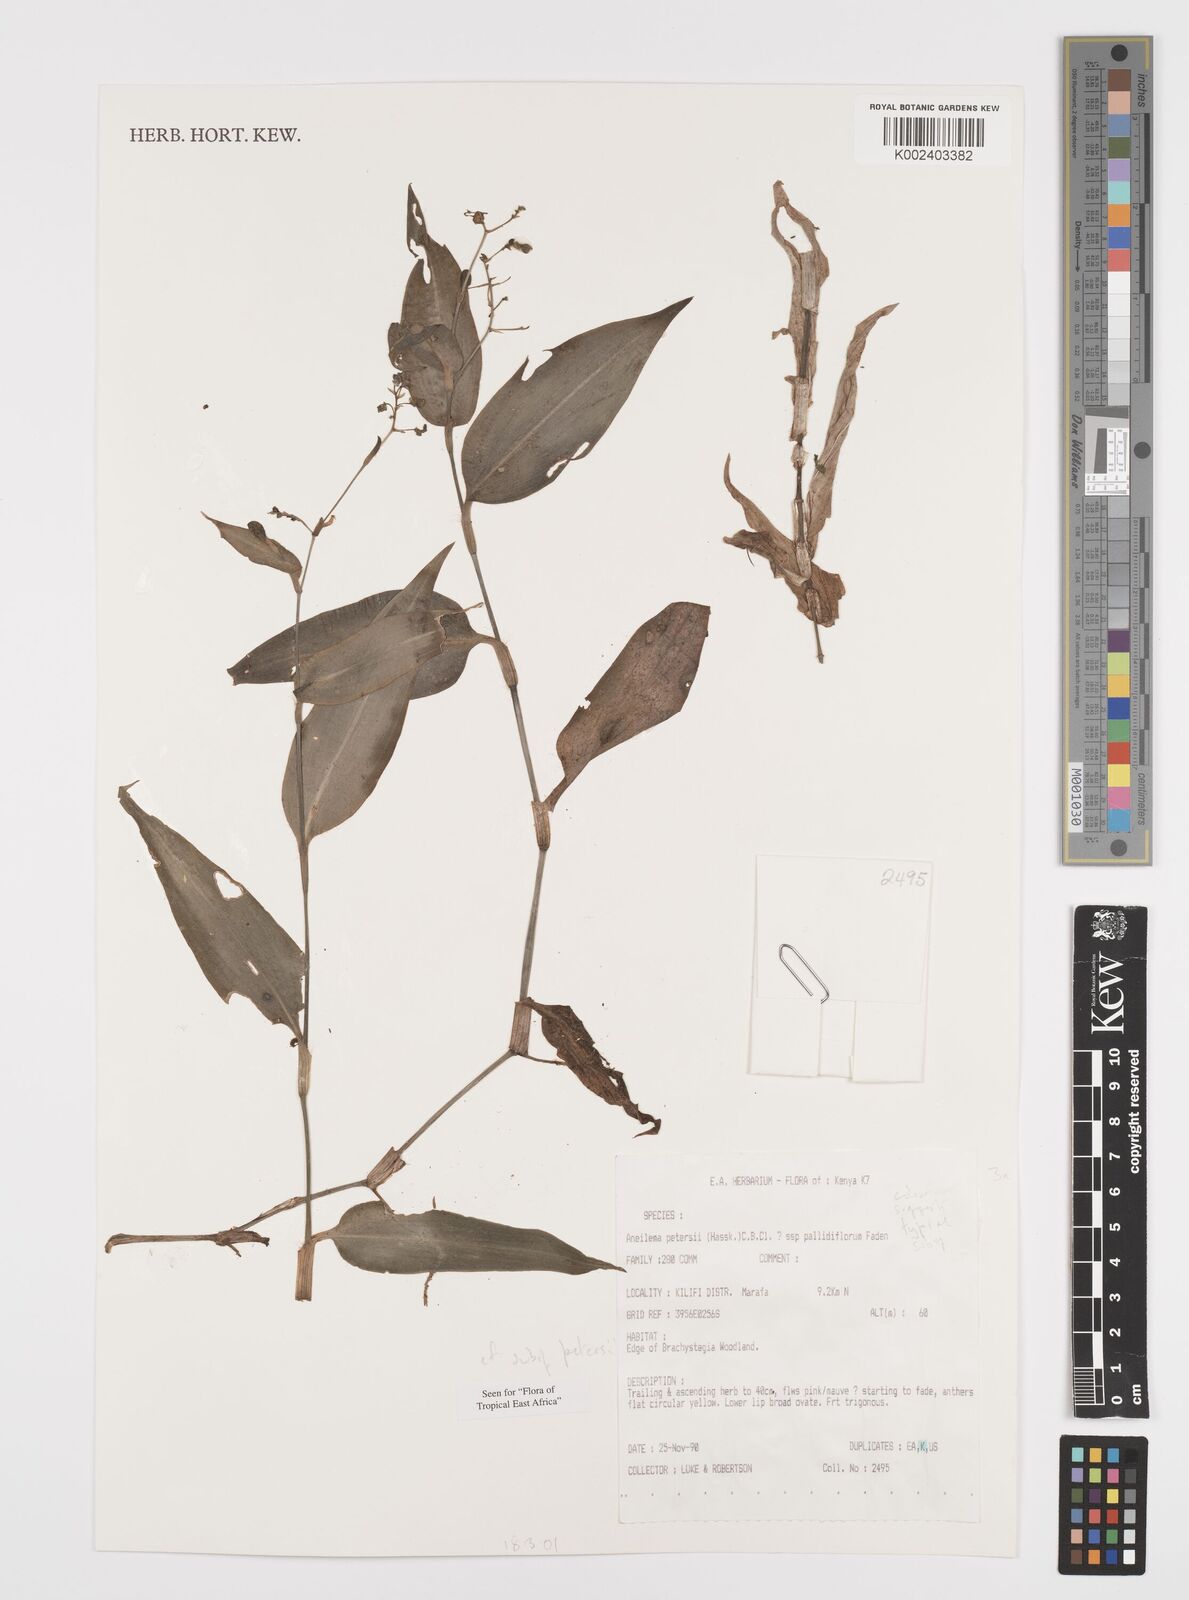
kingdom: Plantae
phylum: Tracheophyta
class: Liliopsida
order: Commelinales
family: Commelinaceae
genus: Aneilema
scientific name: Aneilema petersii
